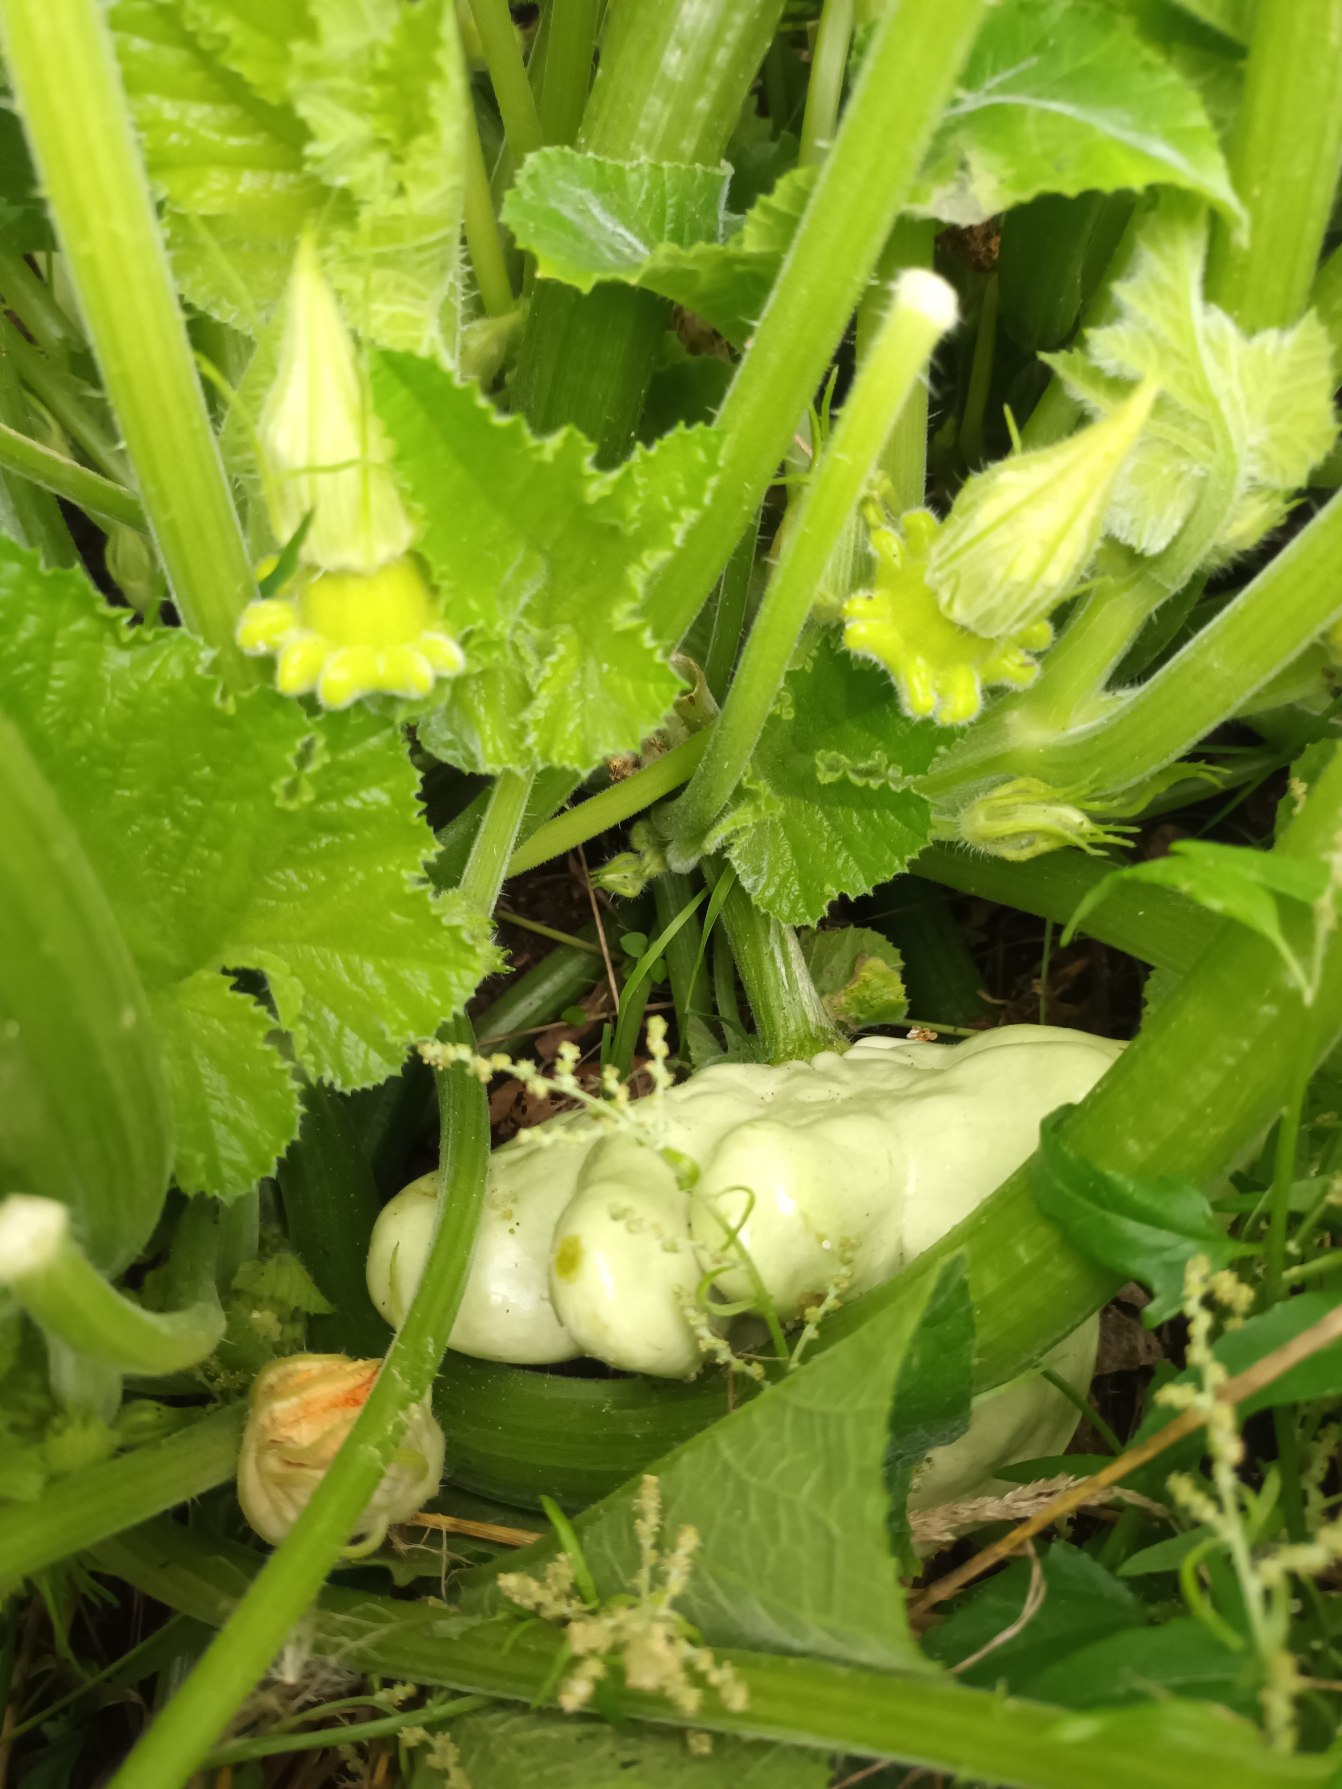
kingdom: Plantae
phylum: Tracheophyta
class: Magnoliopsida
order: Cucurbitales
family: Cucurbitaceae
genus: Cucurbita
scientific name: Cucurbita pepo
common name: Mandel-græskar
